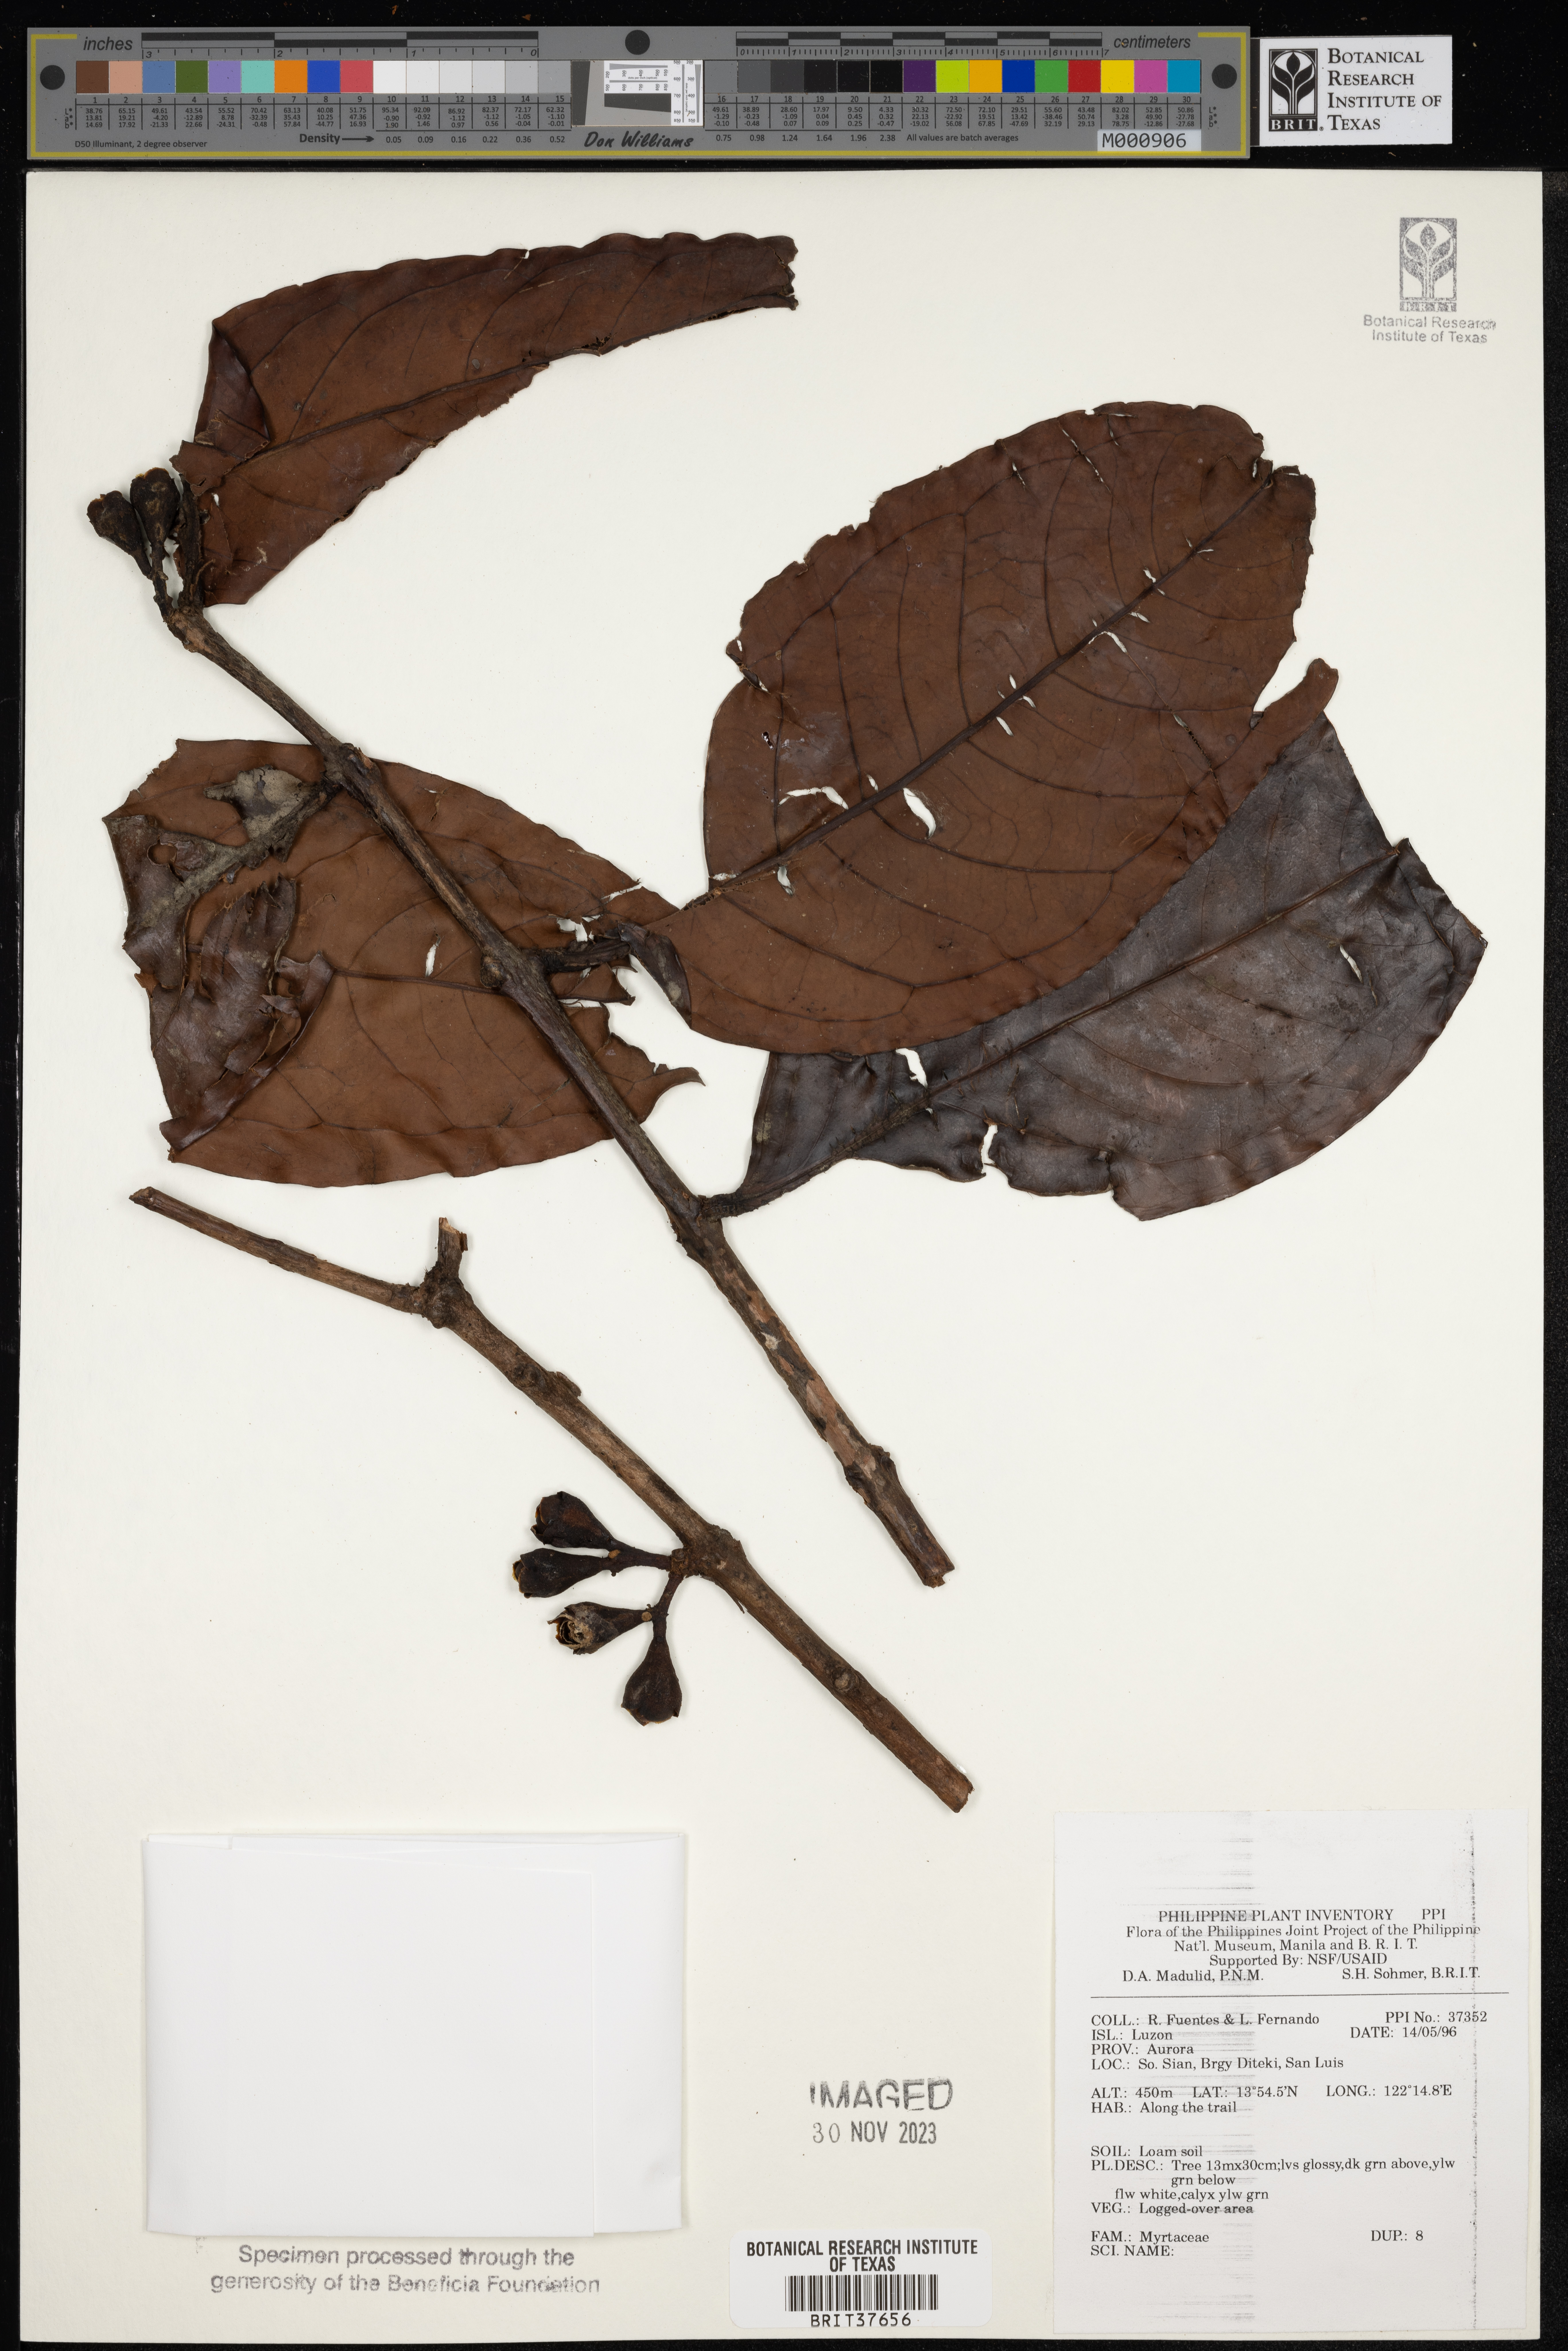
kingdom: Plantae
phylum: Tracheophyta
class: Magnoliopsida
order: Myrtales
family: Myrtaceae
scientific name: Myrtaceae
